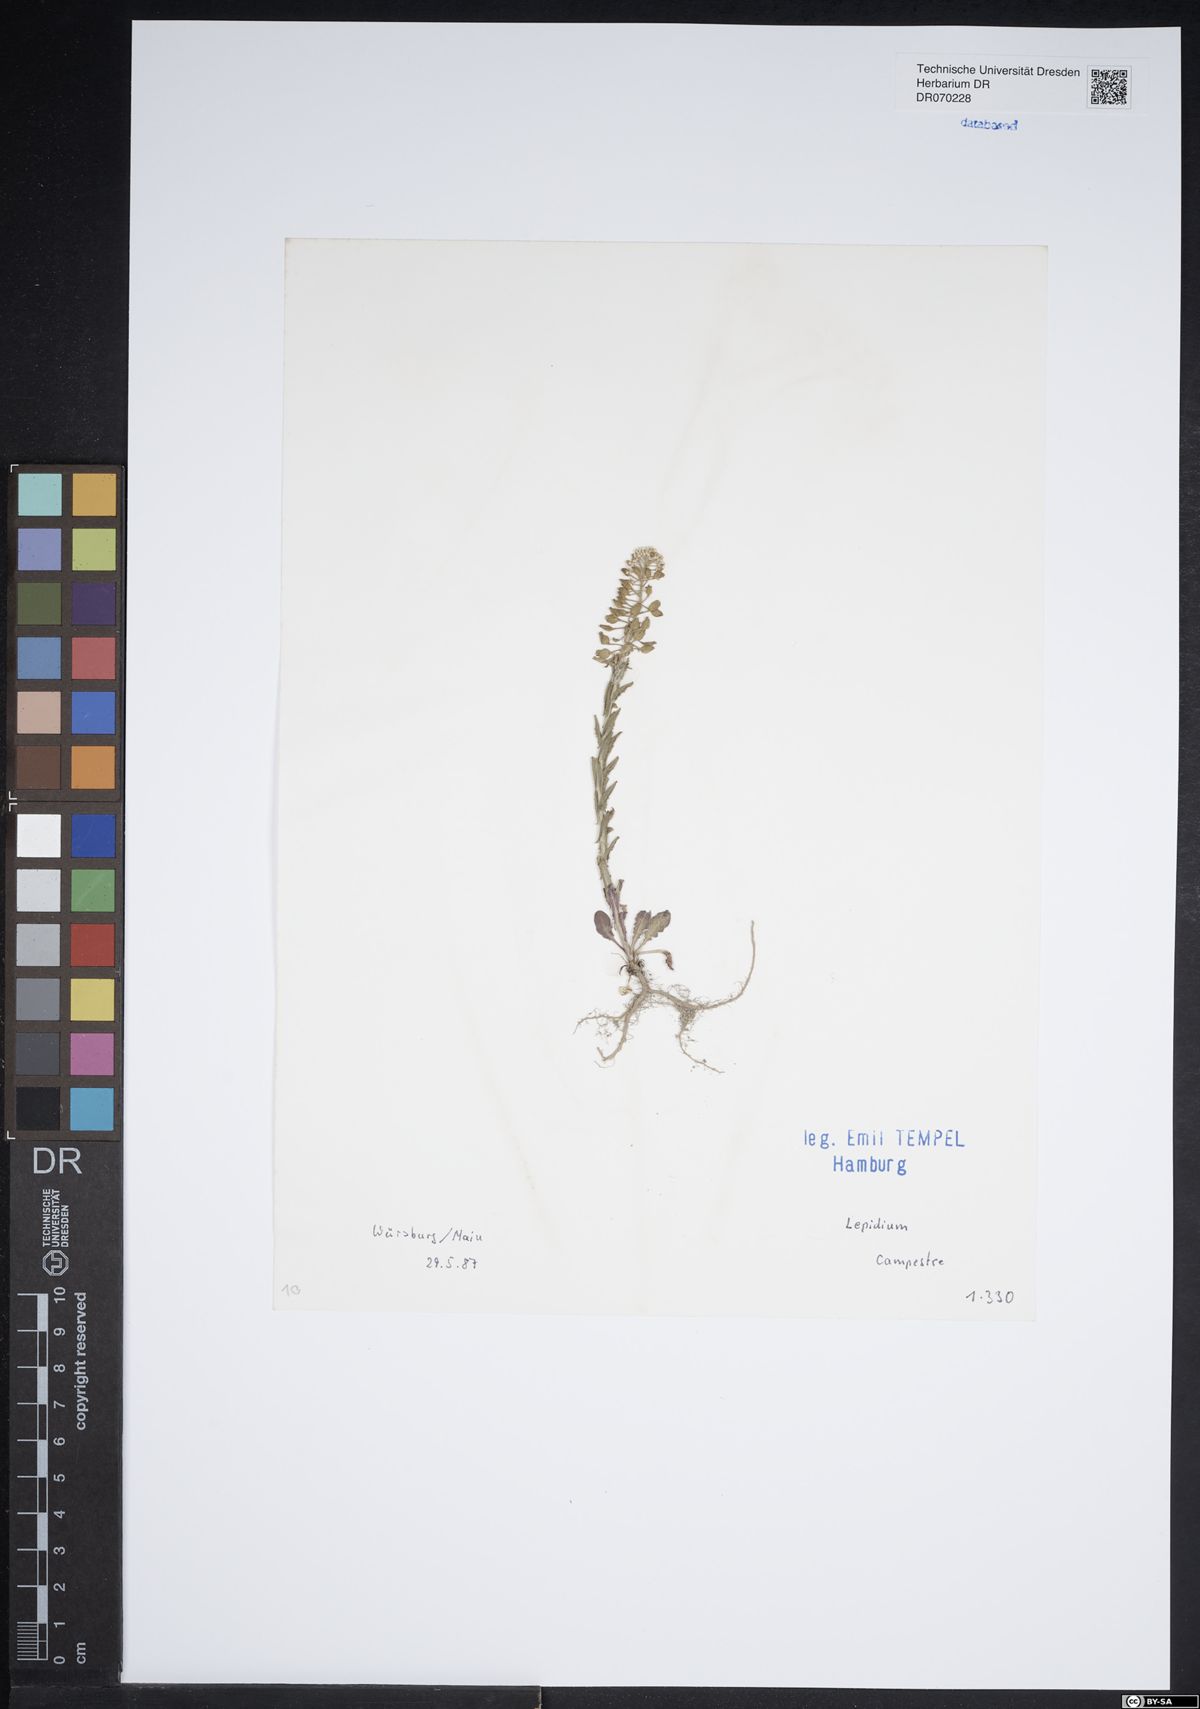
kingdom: Plantae
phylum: Tracheophyta
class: Magnoliopsida
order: Brassicales
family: Brassicaceae
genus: Lepidium
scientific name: Lepidium campestre
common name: Field pepperwort
